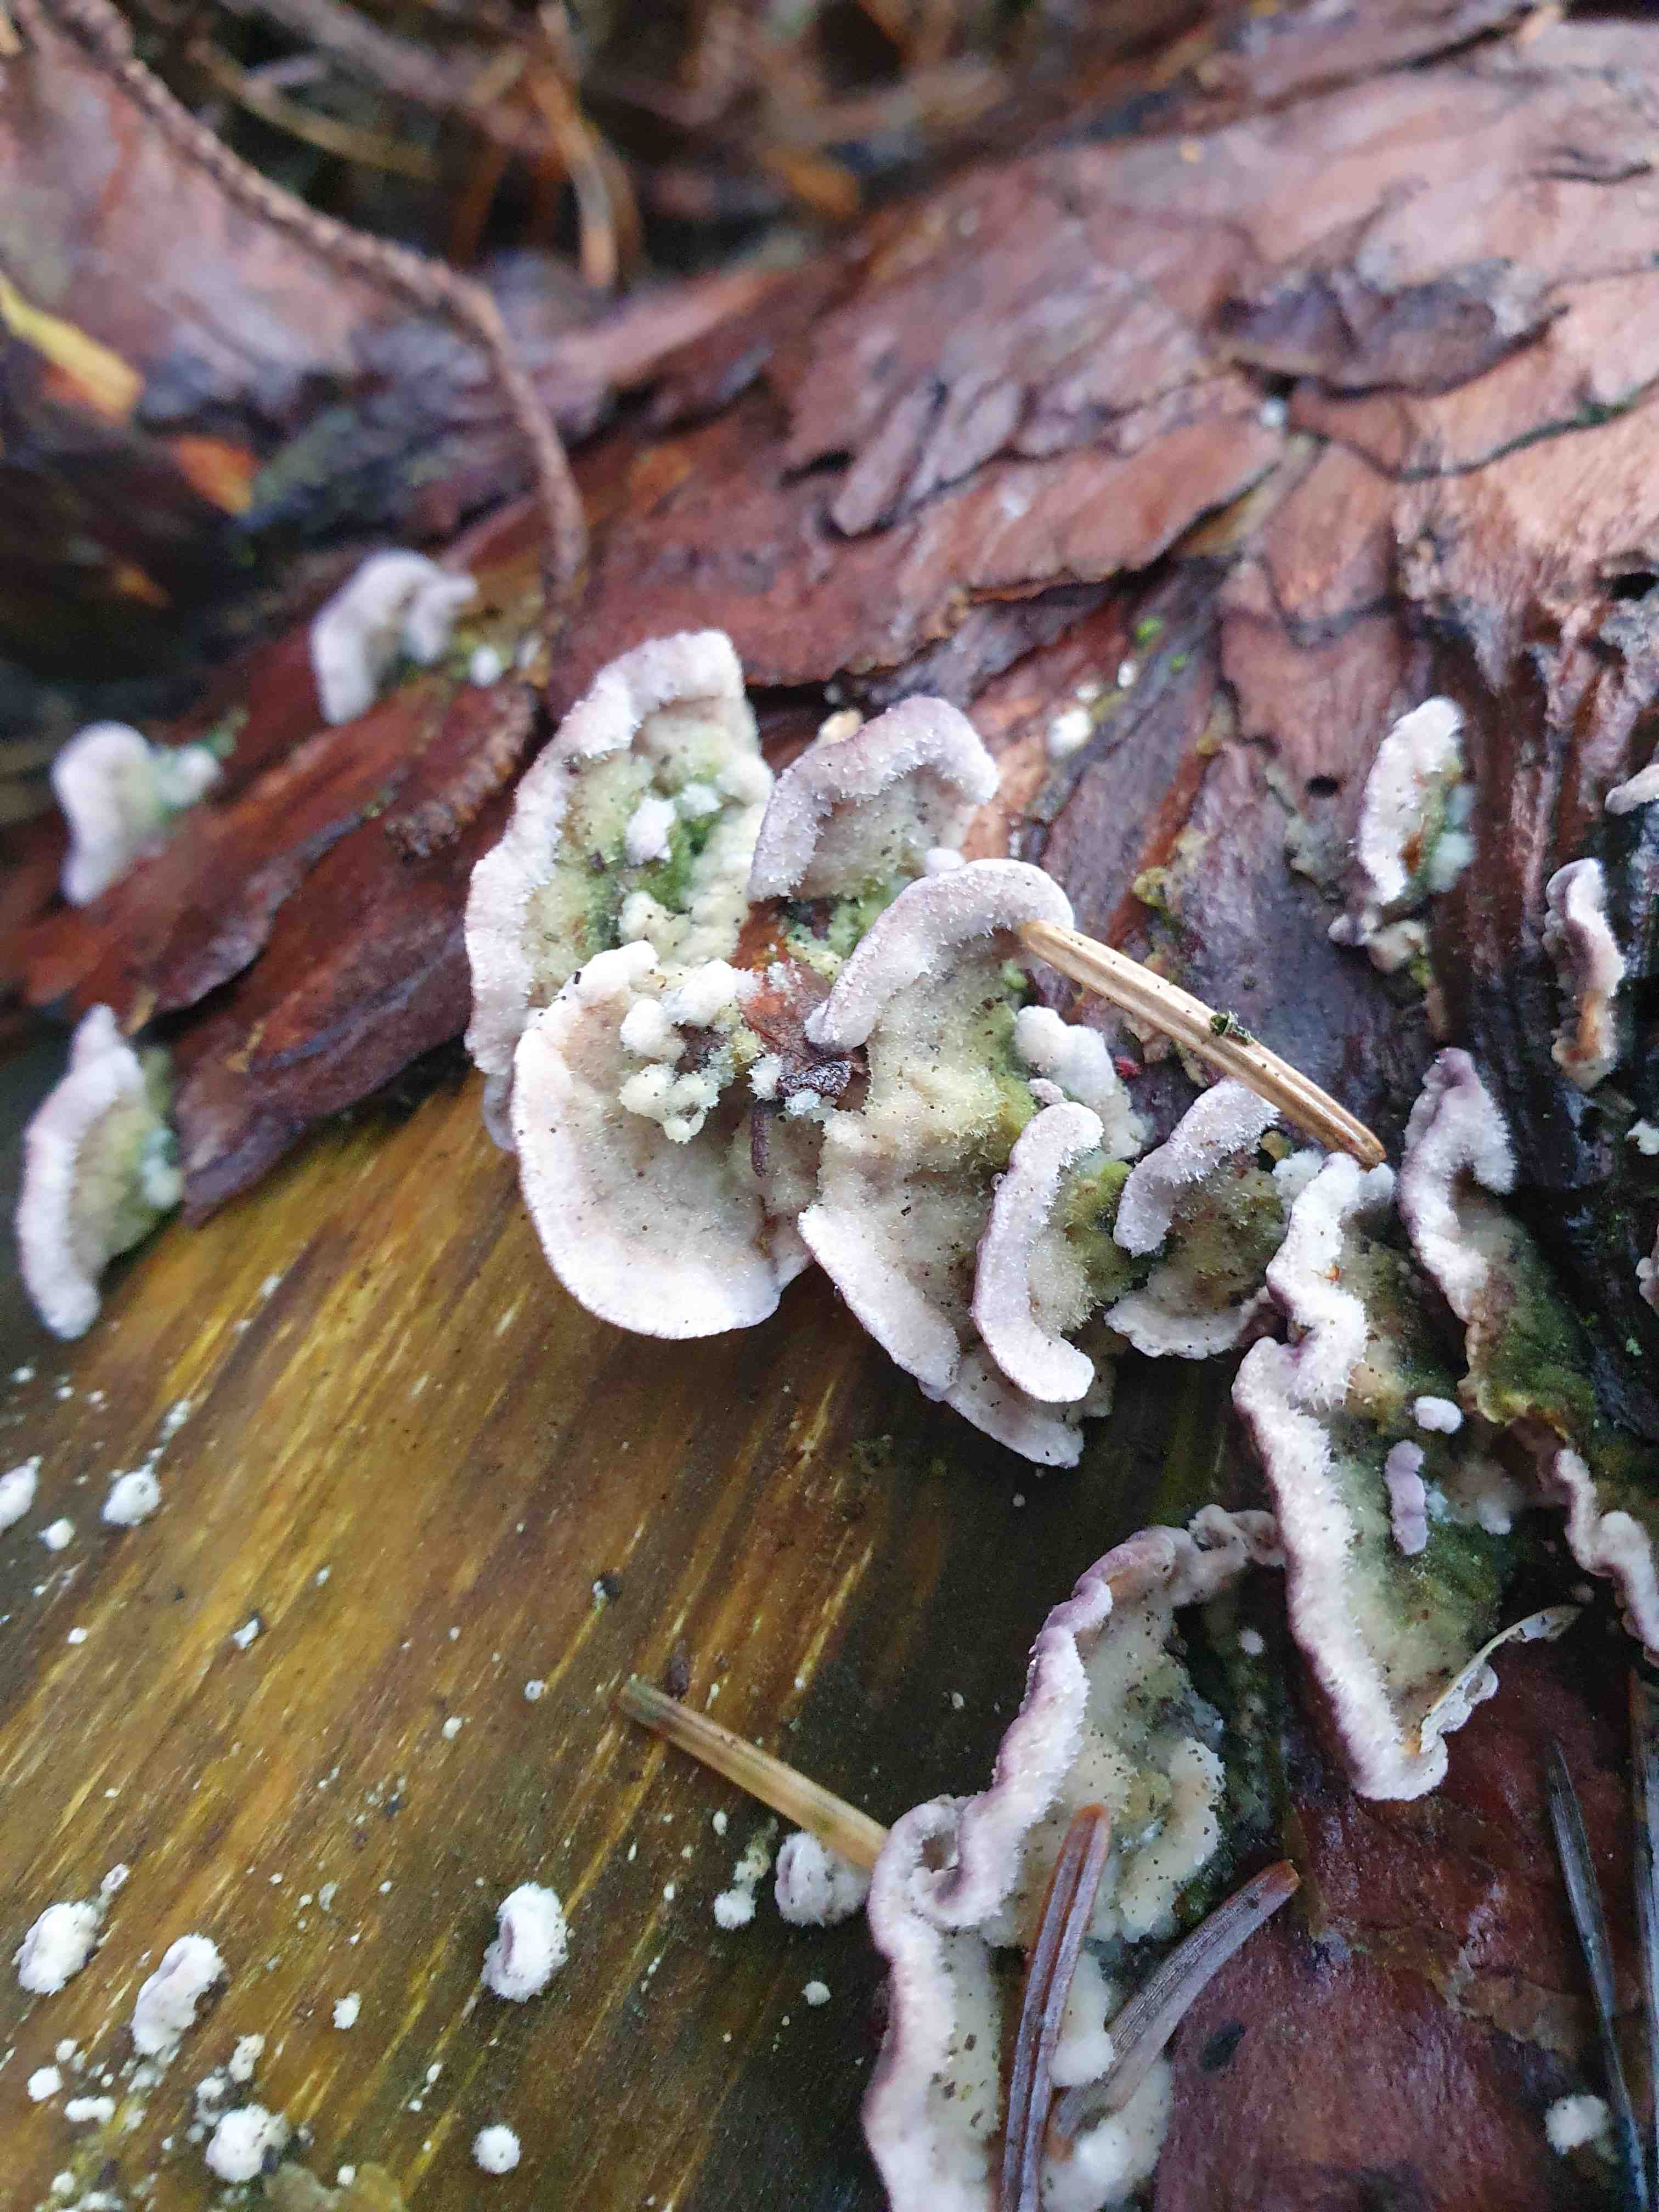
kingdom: Fungi
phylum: Basidiomycota
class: Agaricomycetes
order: Hymenochaetales
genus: Trichaptum
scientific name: Trichaptum fuscoviolaceum
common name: tandet violporesvamp
